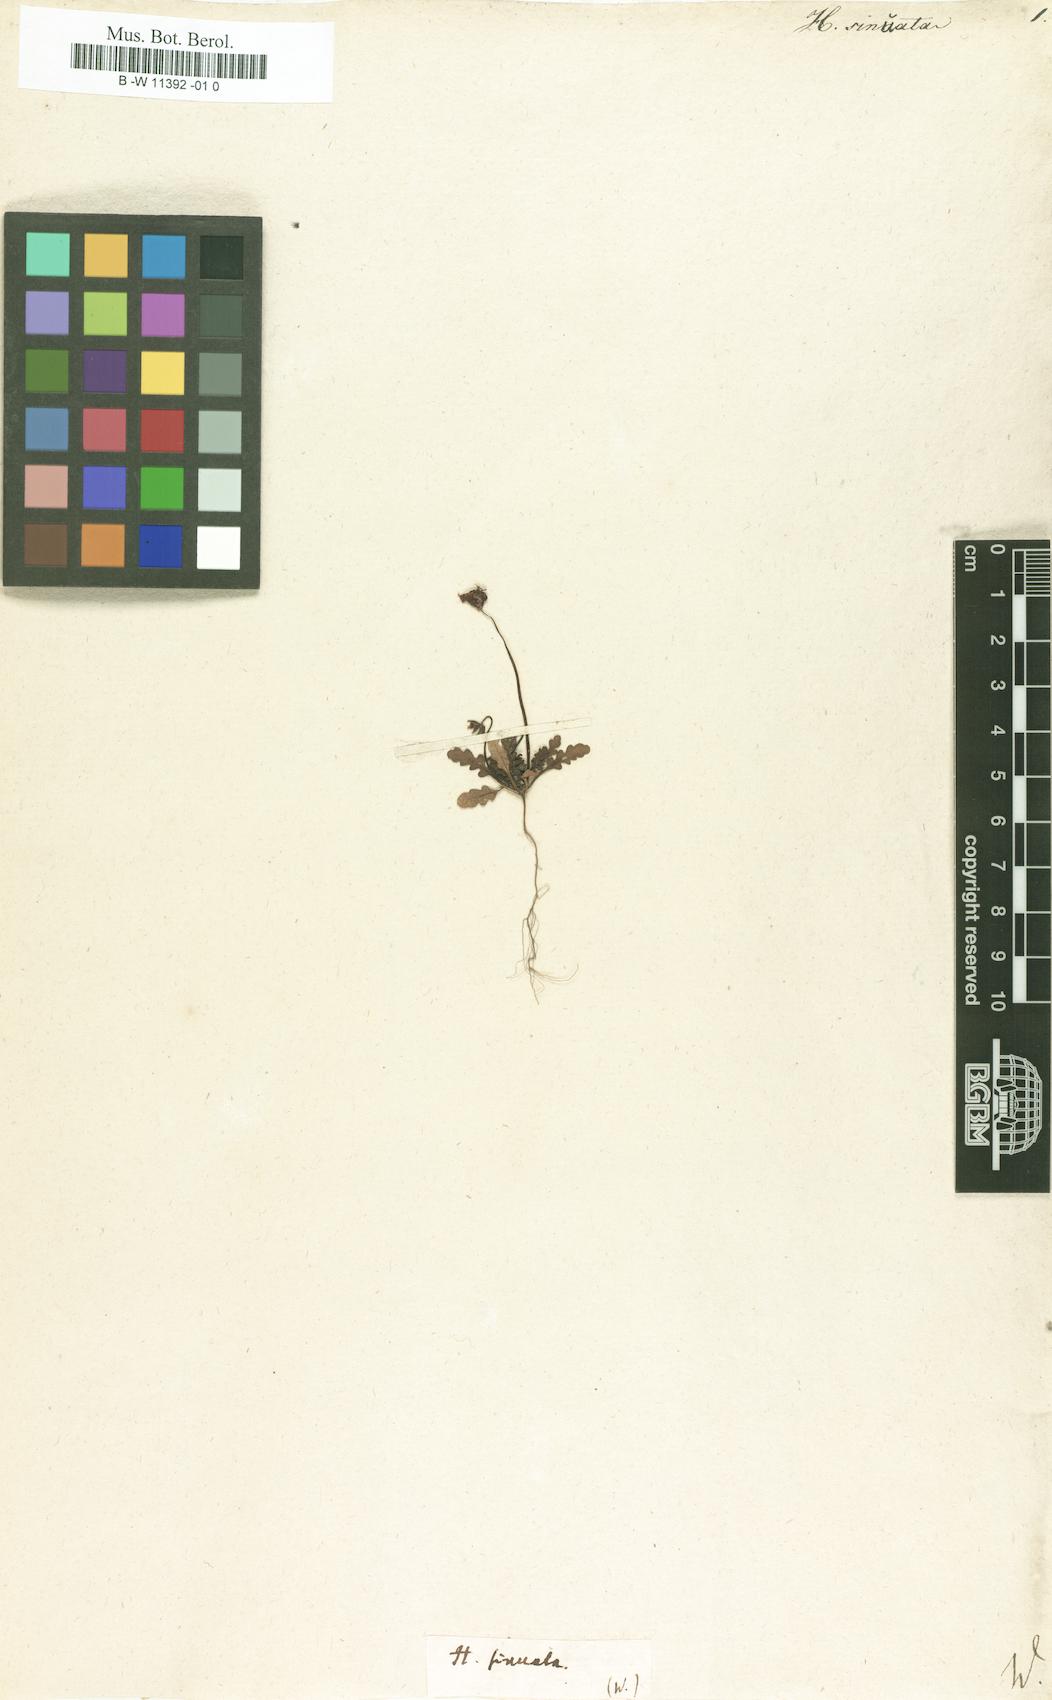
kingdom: Plantae
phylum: Tracheophyta
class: Magnoliopsida
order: Lamiales
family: Scrophulariaceae
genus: Alonsoa
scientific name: Alonsoa unilabiata
